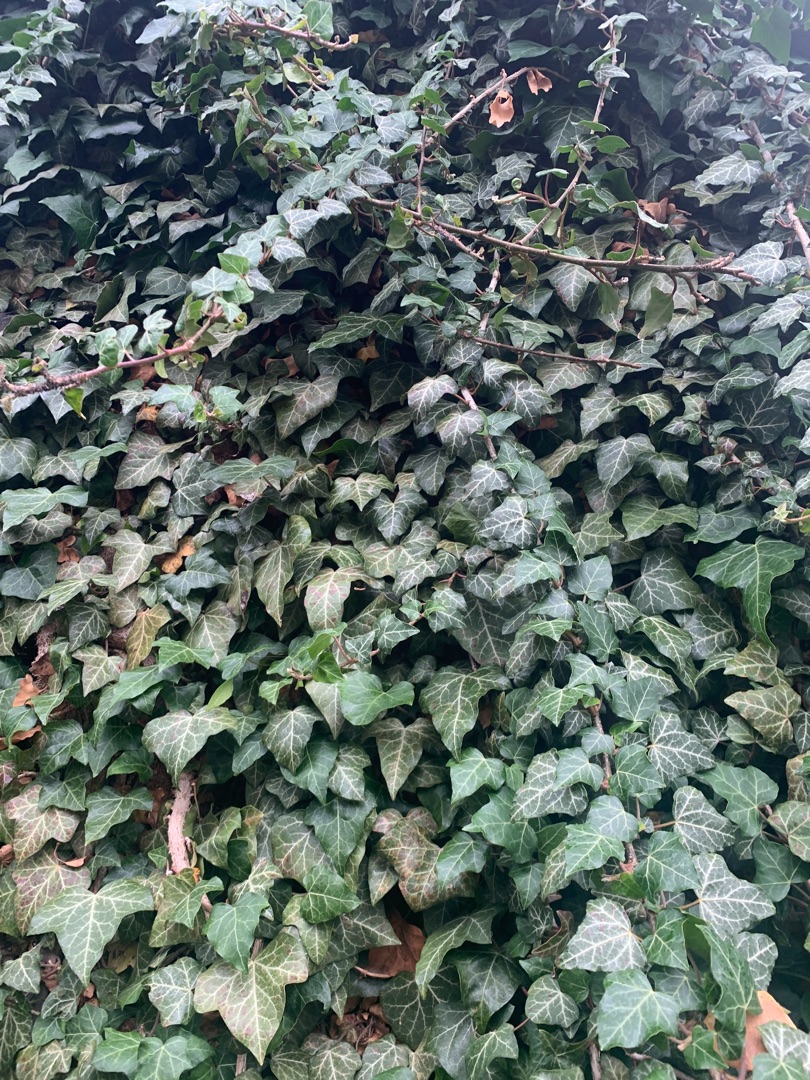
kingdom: Plantae
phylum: Tracheophyta
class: Magnoliopsida
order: Apiales
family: Araliaceae
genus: Hedera
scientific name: Hedera helix
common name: Vedbend
